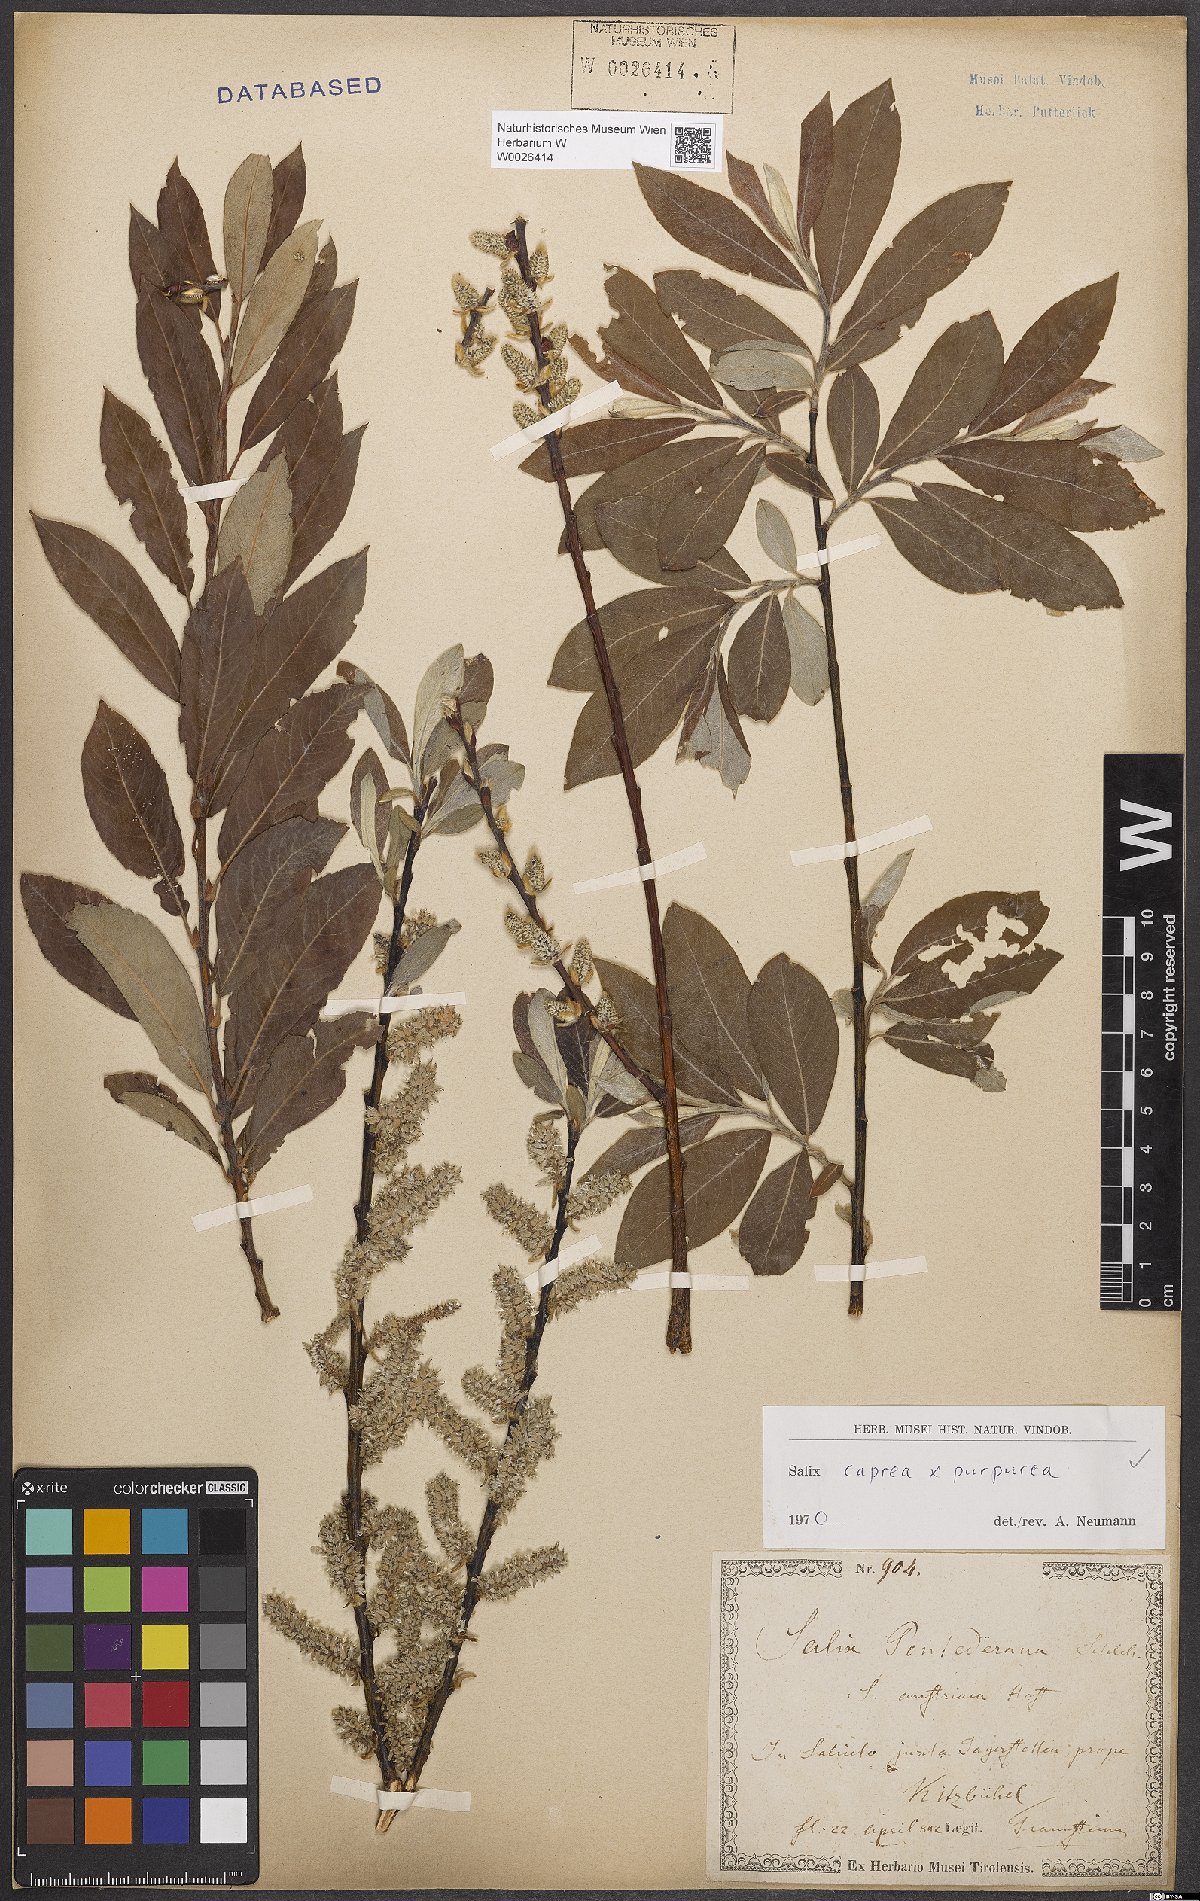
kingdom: Plantae
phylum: Tracheophyta
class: Magnoliopsida
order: Malpighiales
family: Salicaceae
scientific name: Salicaceae
